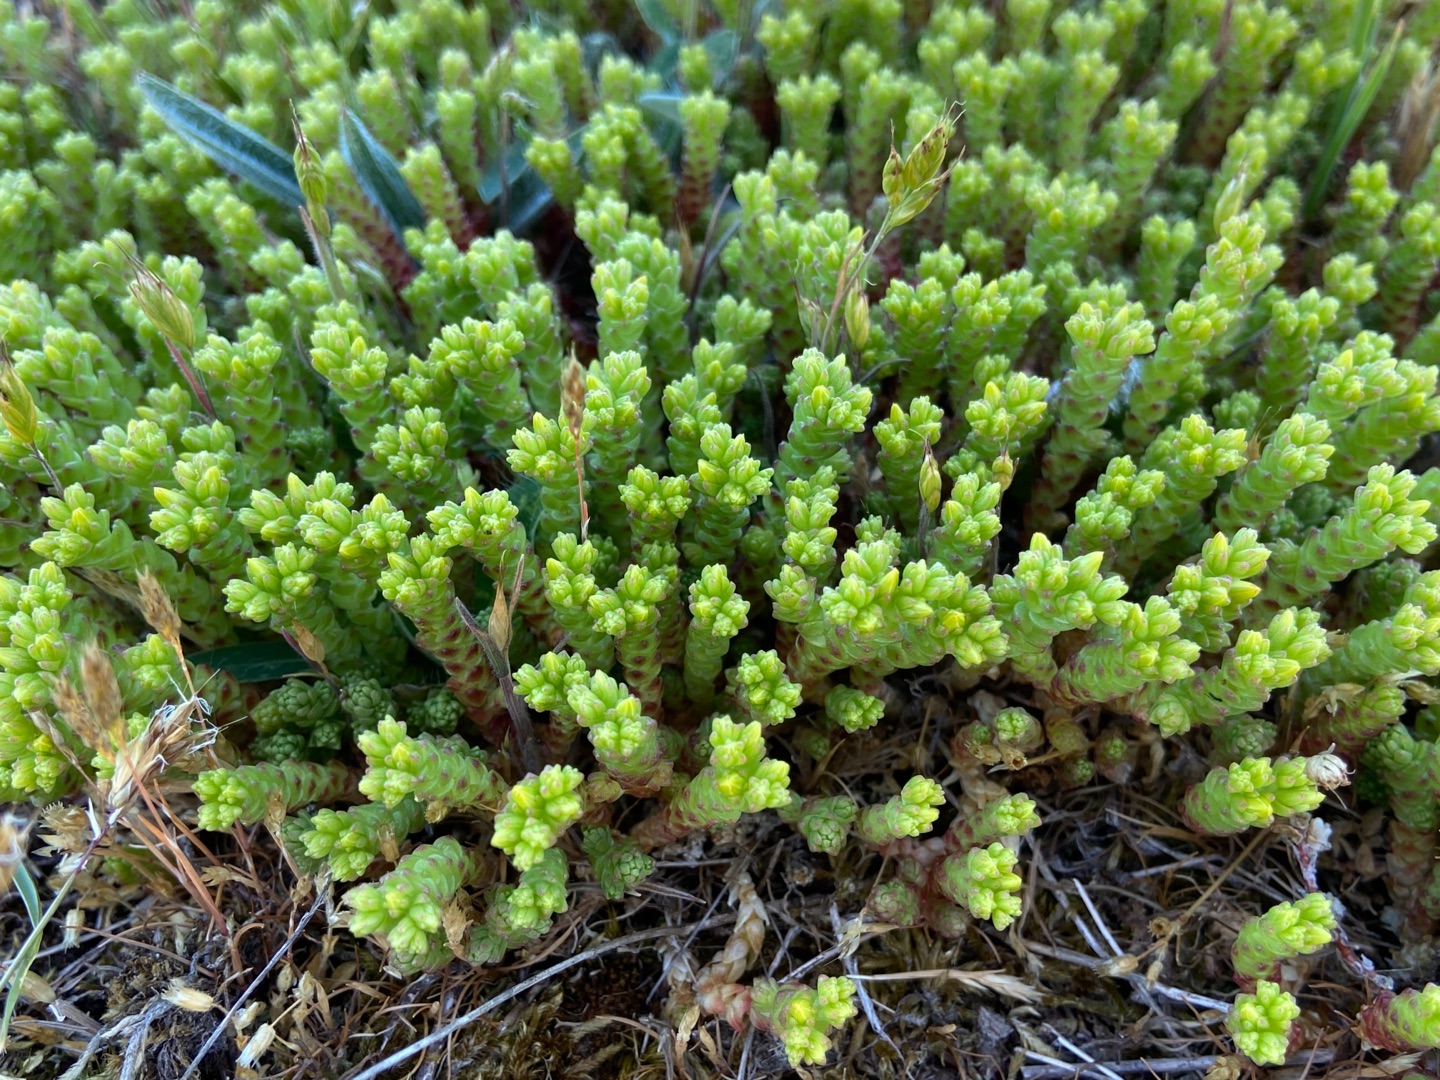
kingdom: Plantae
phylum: Tracheophyta
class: Magnoliopsida
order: Saxifragales
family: Crassulaceae
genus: Sedum
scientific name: Sedum acre
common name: Bidende stenurt
